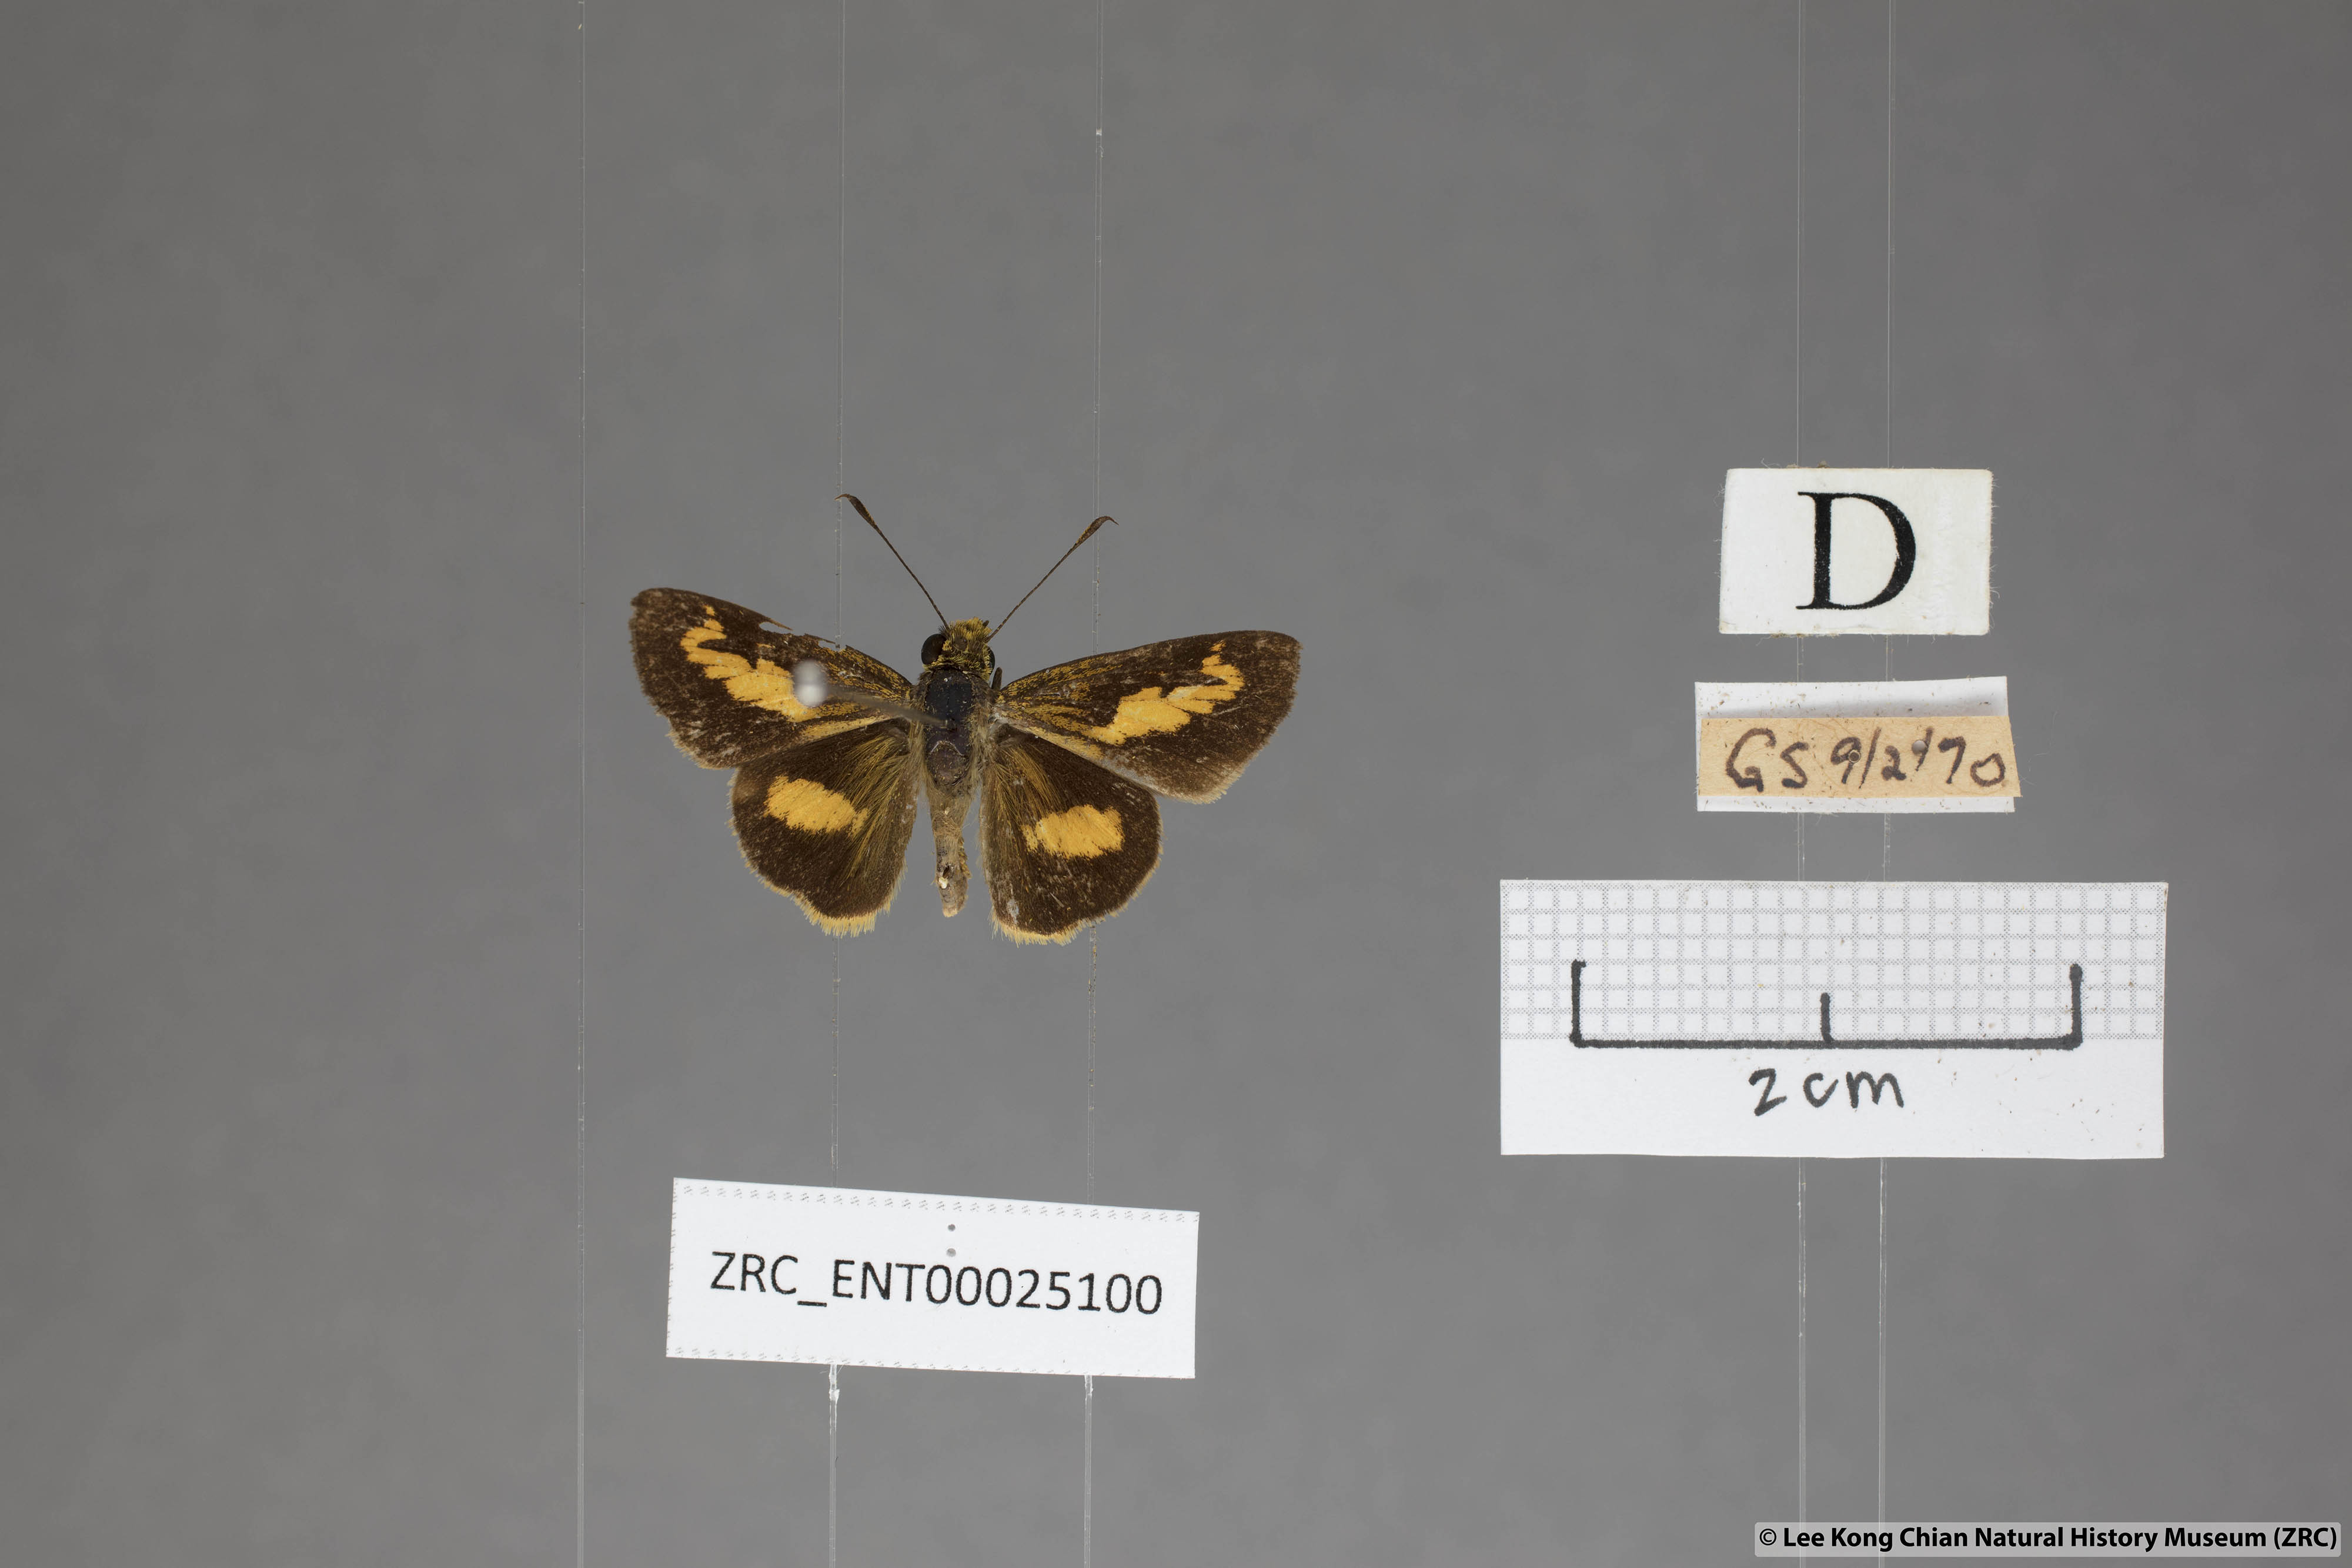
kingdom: Animalia
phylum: Arthropoda
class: Insecta
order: Lepidoptera
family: Hesperiidae
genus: Oriens
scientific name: Oriens paragola
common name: Malay dartlet
